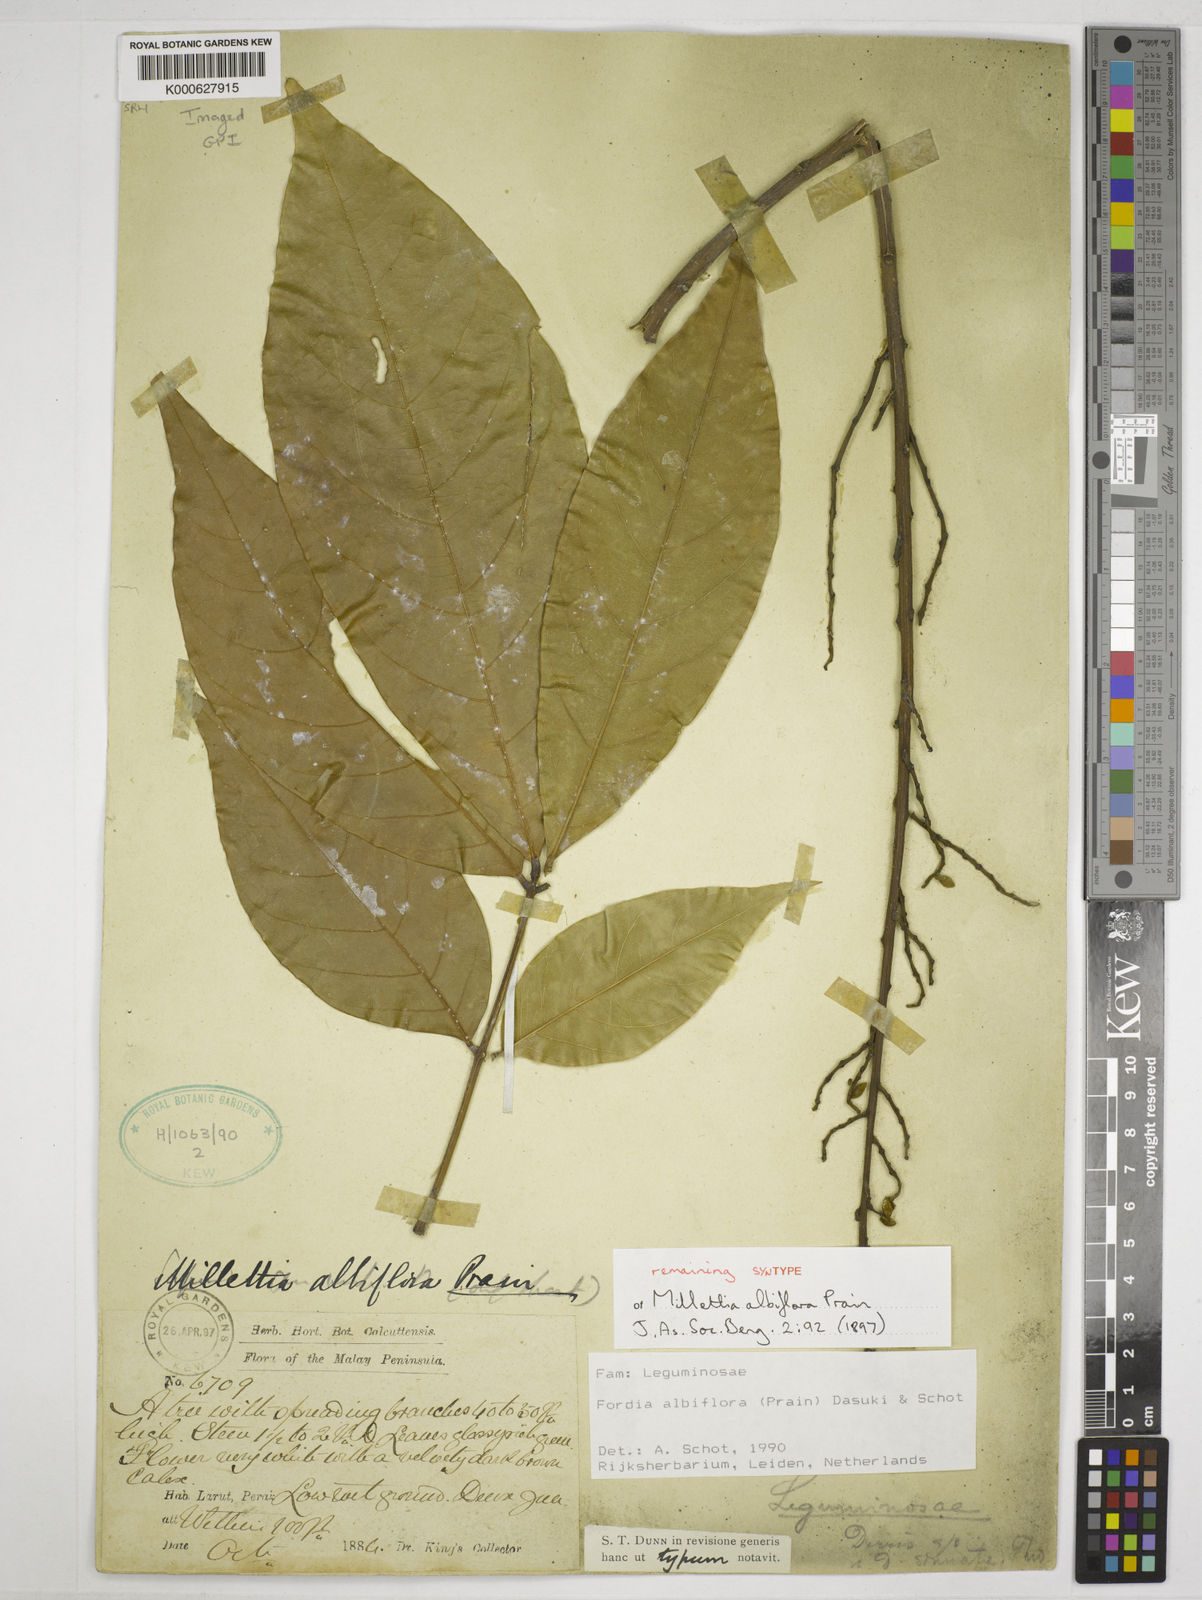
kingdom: Plantae
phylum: Tracheophyta
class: Magnoliopsida
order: Fabales
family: Fabaceae
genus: Imbralyx
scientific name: Imbralyx albiflorus
